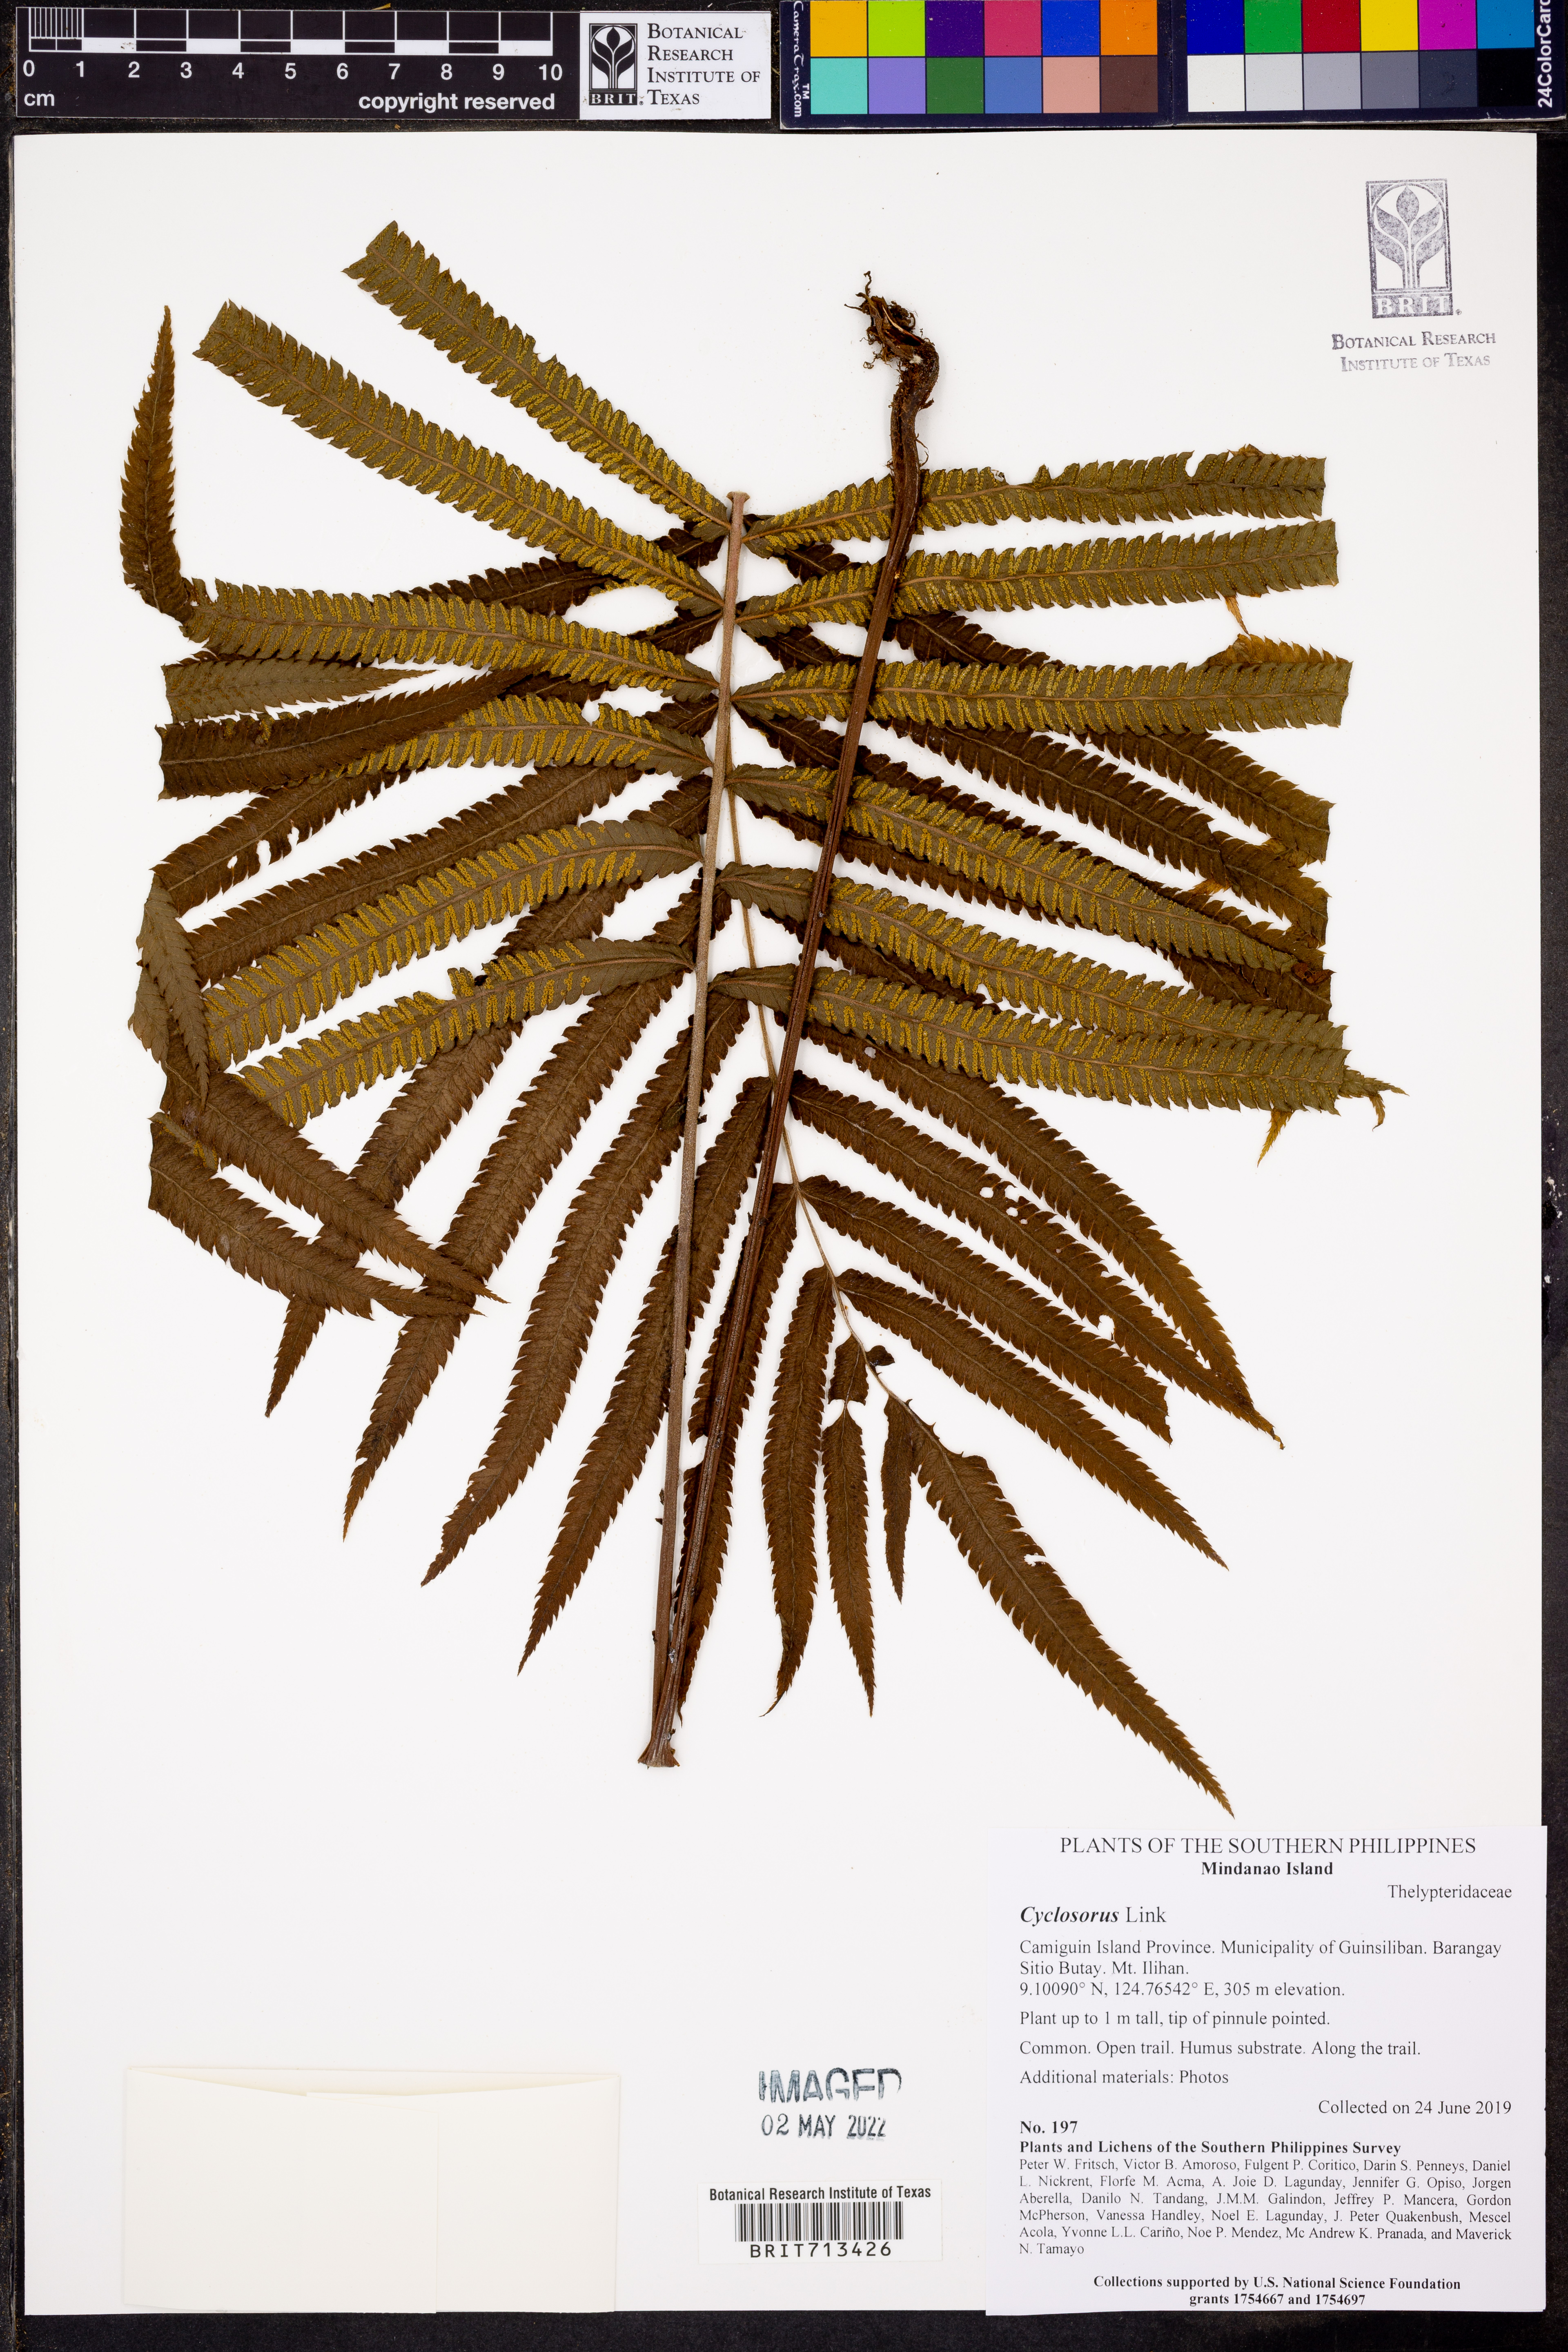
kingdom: Plantae
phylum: Tracheophyta
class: Polypodiopsida
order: Polypodiales
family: Thelypteridaceae
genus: Cyclosorus
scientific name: Cyclosorus
